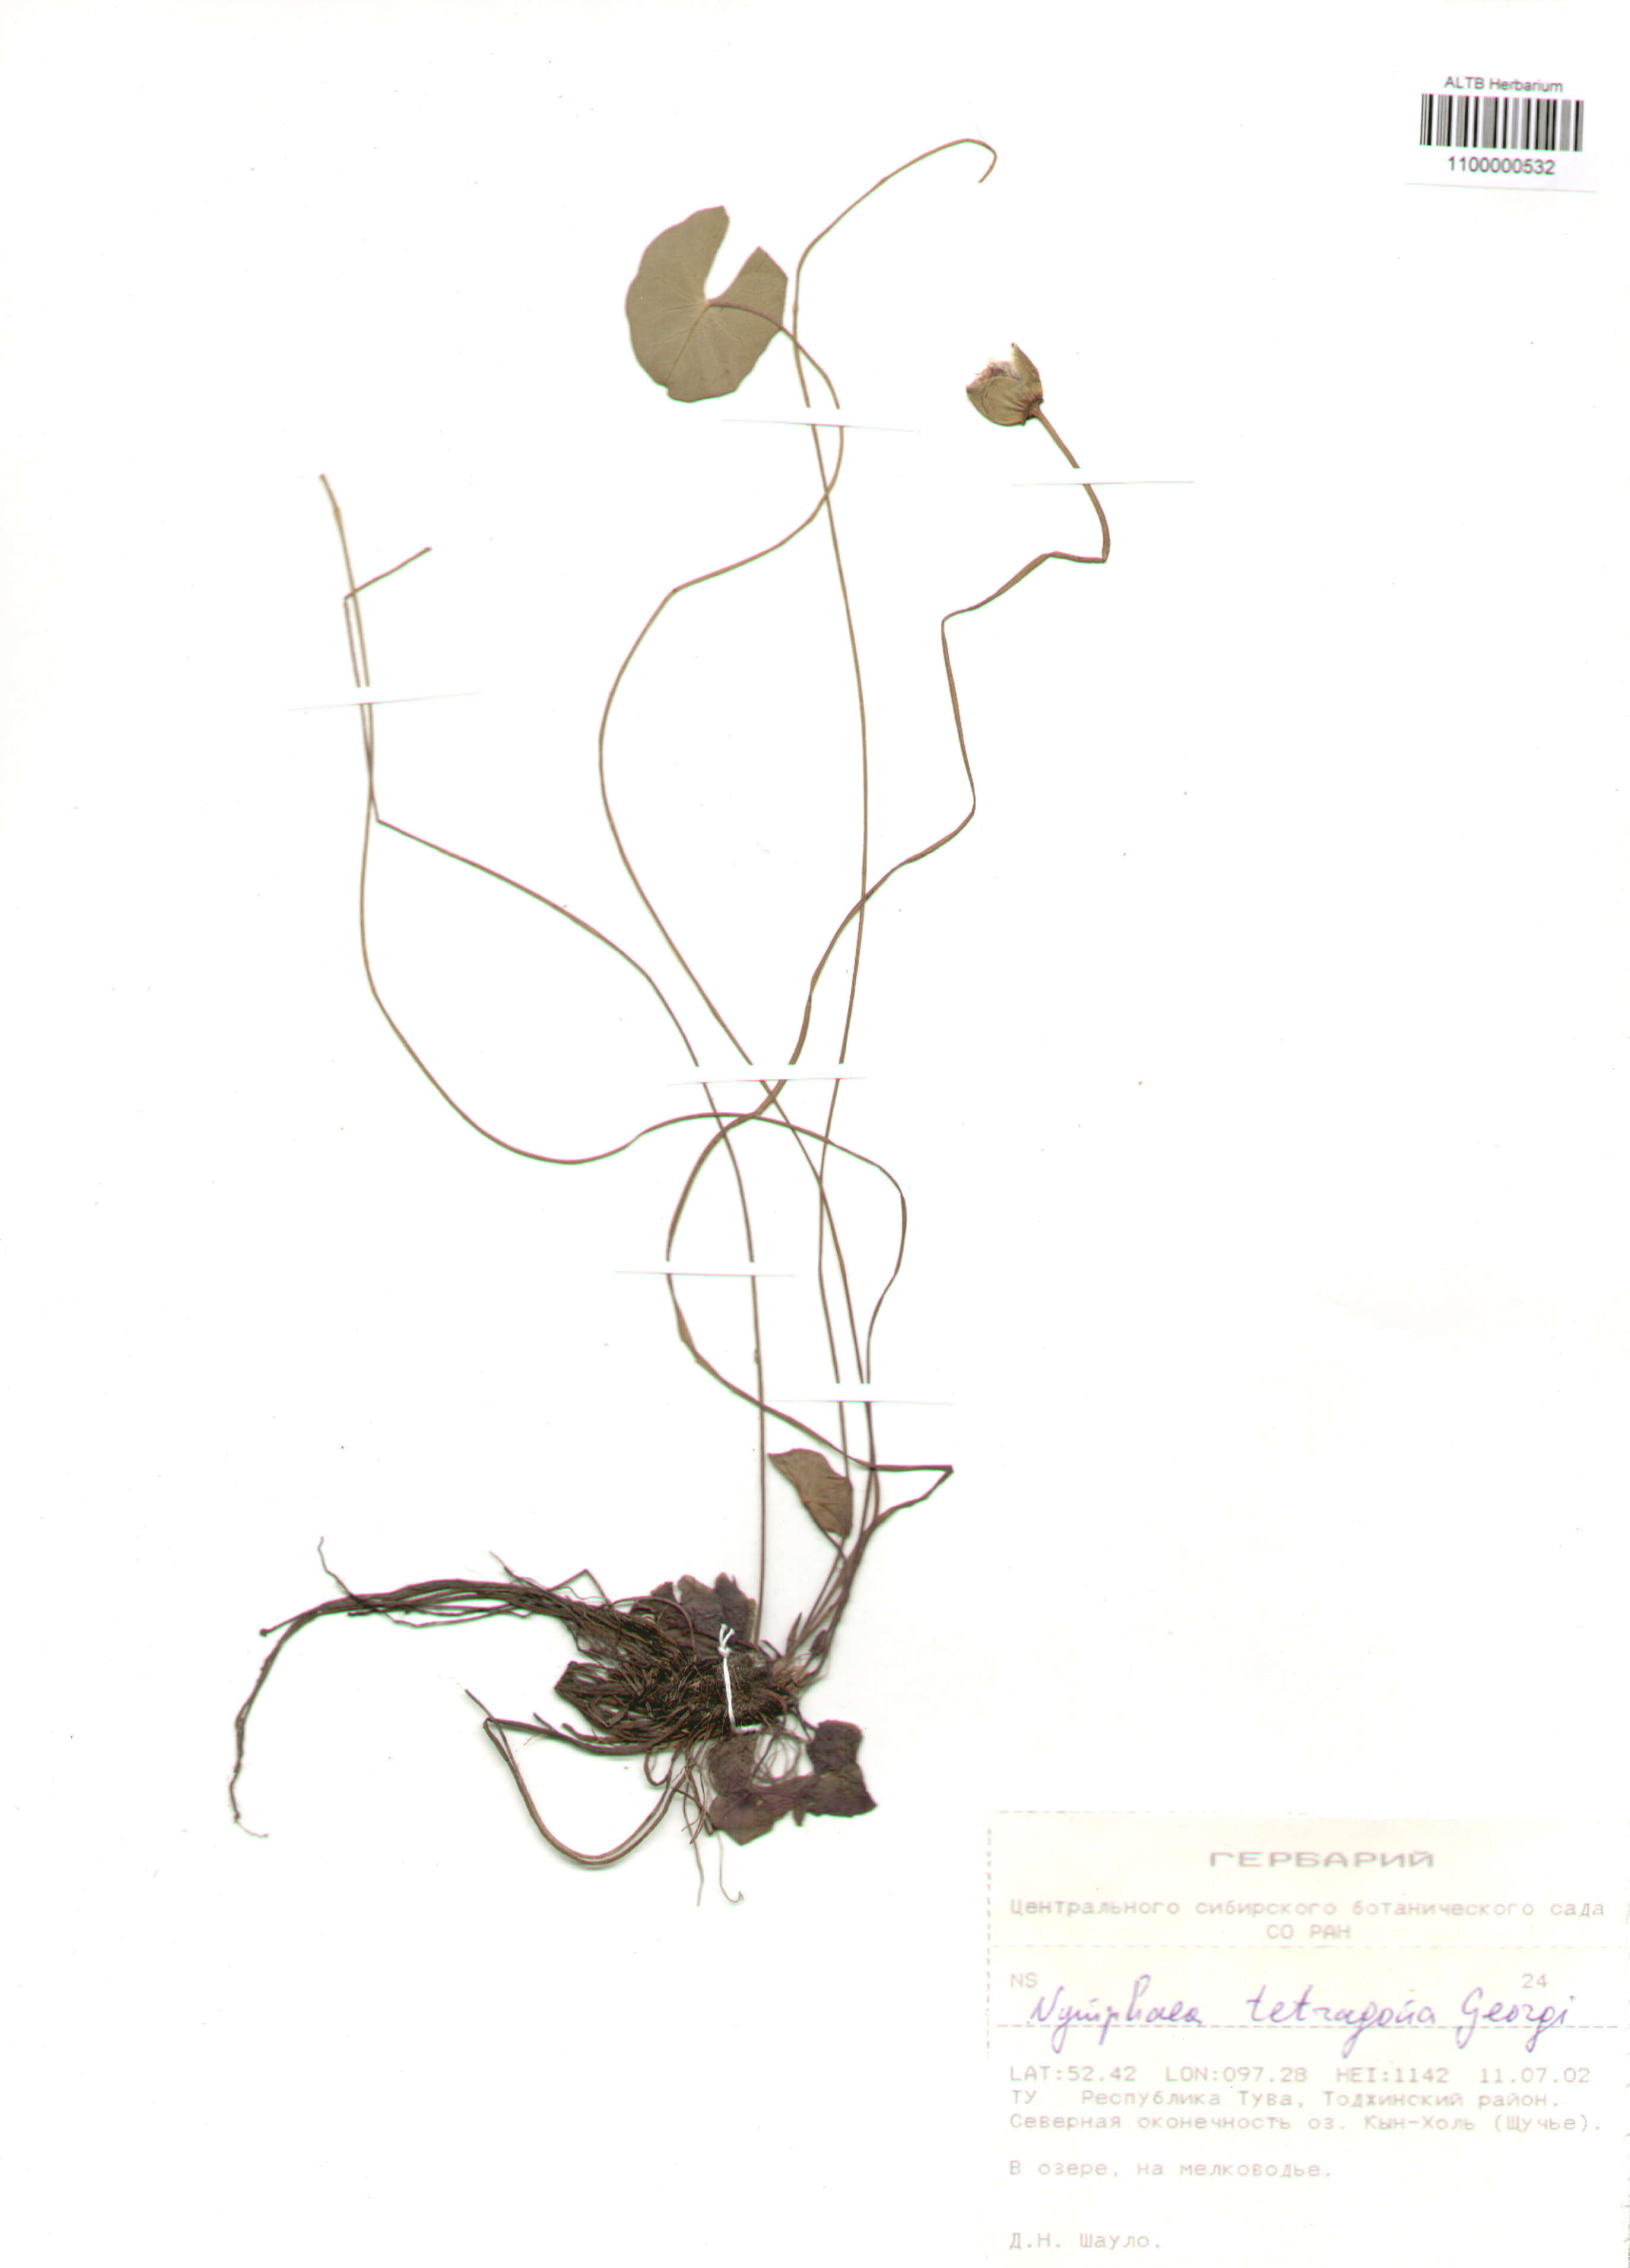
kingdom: Plantae
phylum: Tracheophyta
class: Magnoliopsida
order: Nymphaeales
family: Nymphaeaceae
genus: Nymphaea
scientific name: Nymphaea tetragona
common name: Pygmy water-lily
